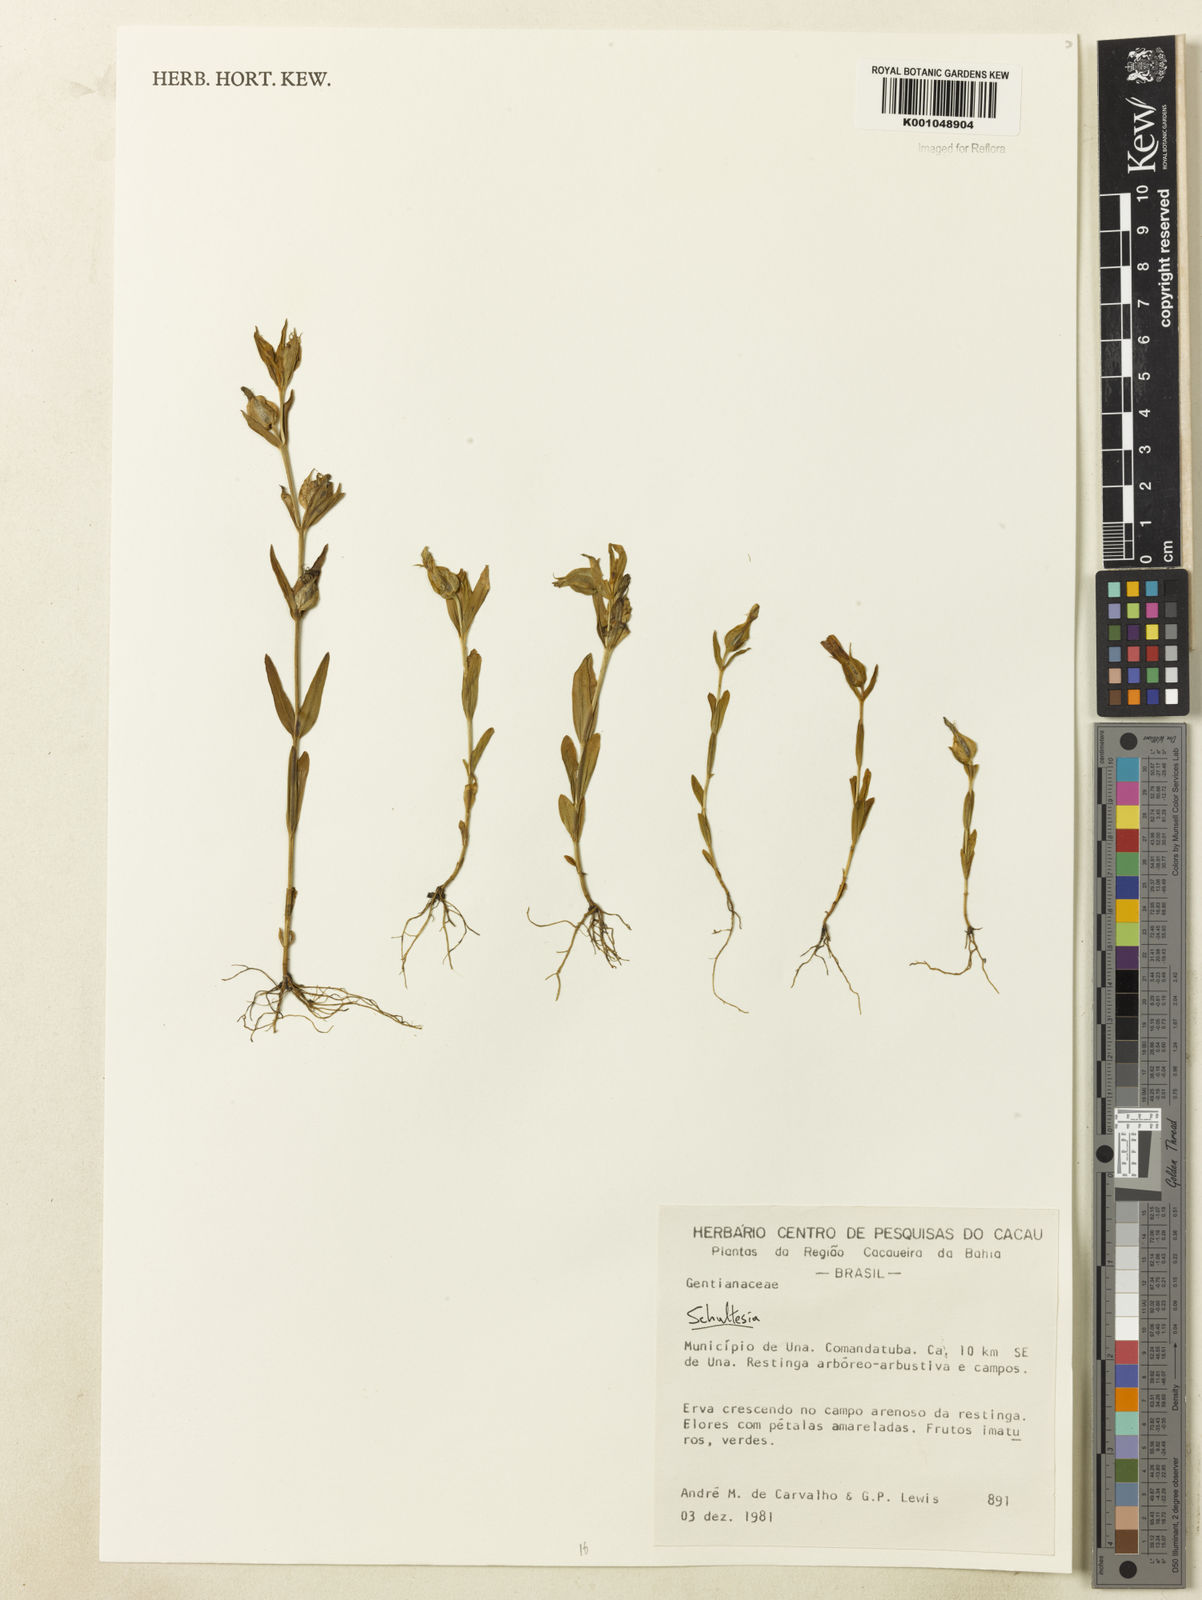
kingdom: Plantae
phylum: Tracheophyta
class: Magnoliopsida
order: Gentianales
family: Gentianaceae
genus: Schultesia
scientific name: Schultesia
